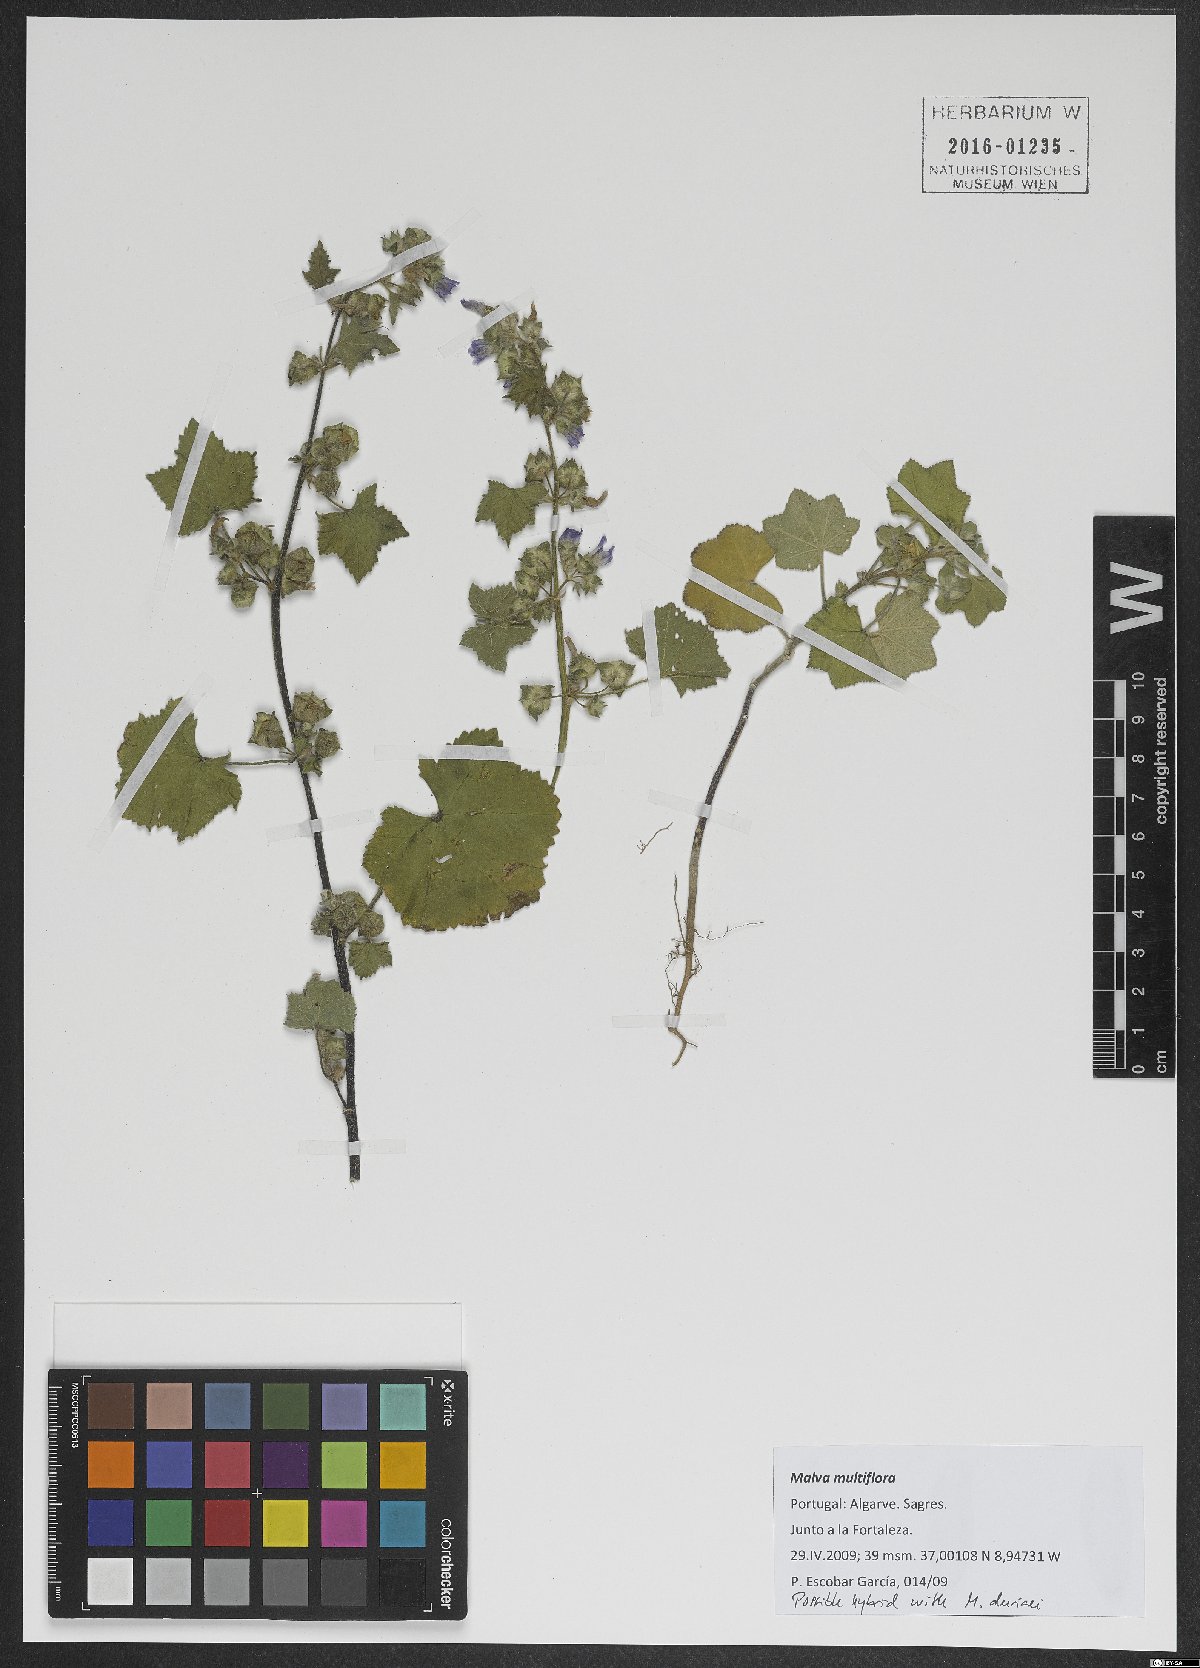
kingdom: Plantae
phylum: Tracheophyta
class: Magnoliopsida
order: Malvales
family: Malvaceae
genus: Malva
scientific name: Malva multiflora
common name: Cheeseweed
